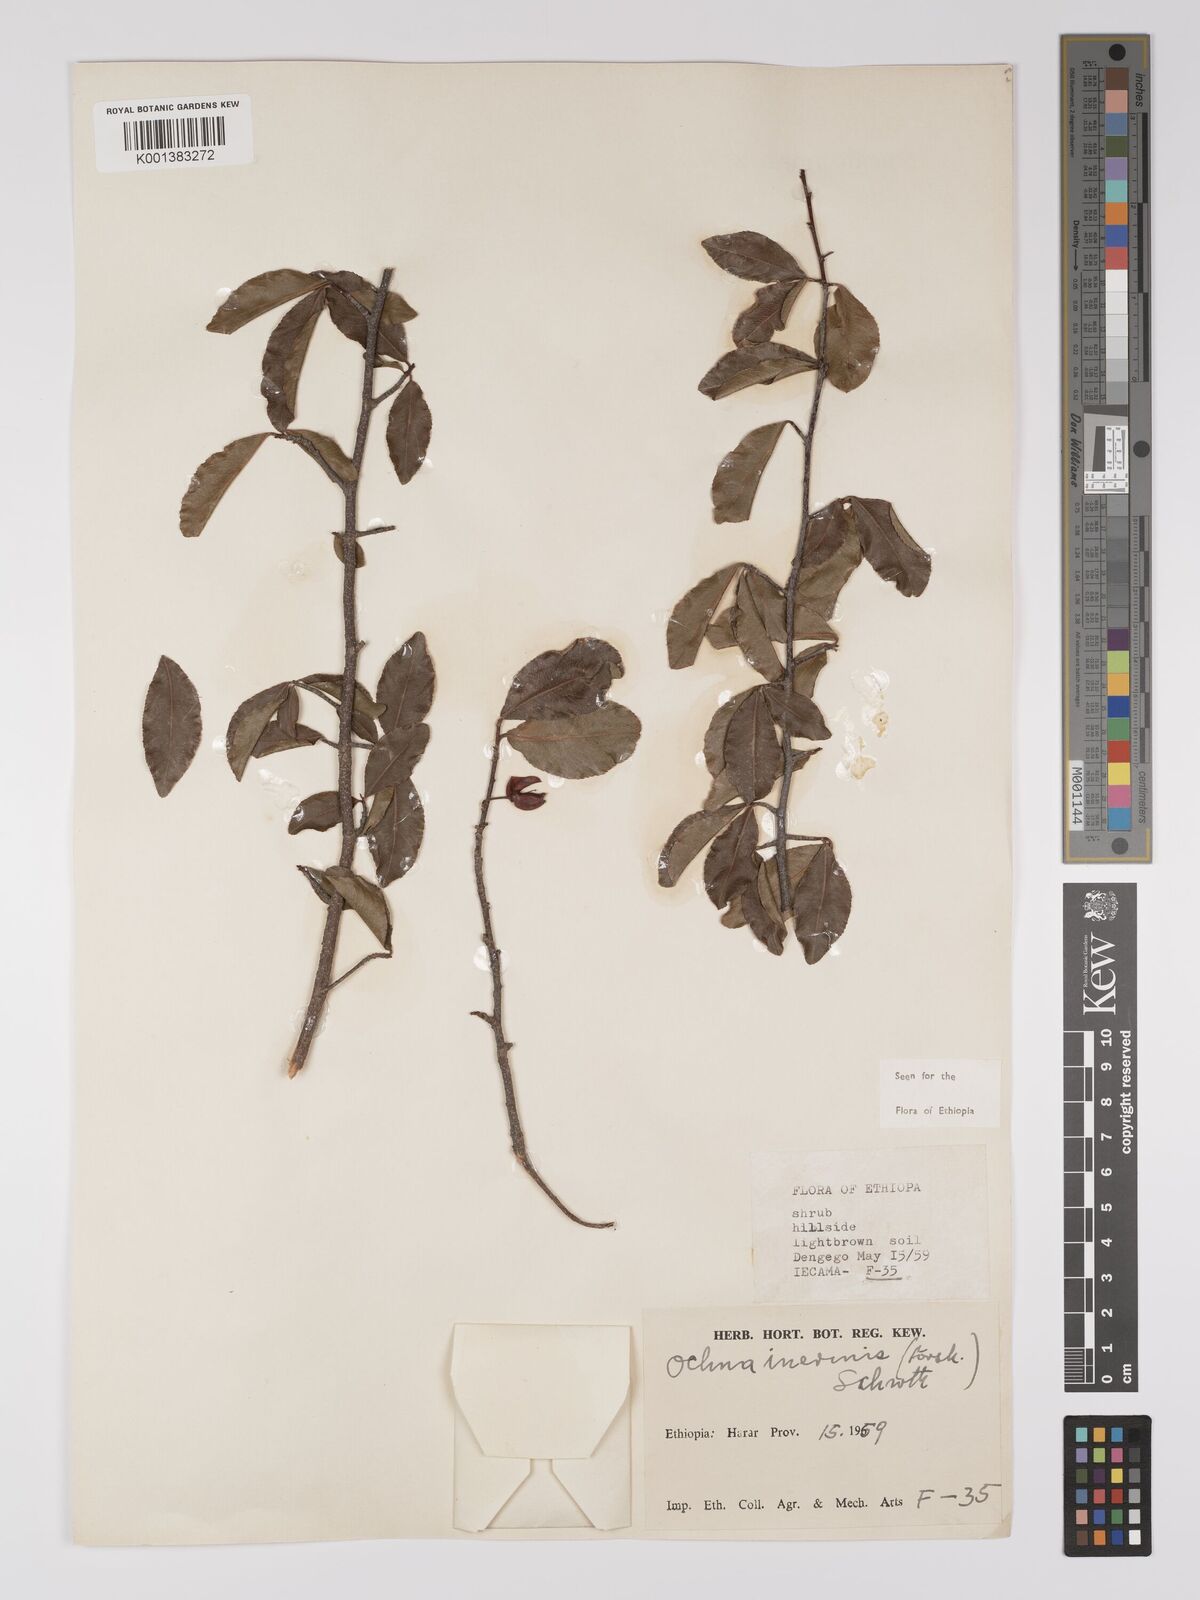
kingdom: Plantae
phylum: Tracheophyta
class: Magnoliopsida
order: Malpighiales
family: Ochnaceae
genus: Ochna
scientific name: Ochna inermis
